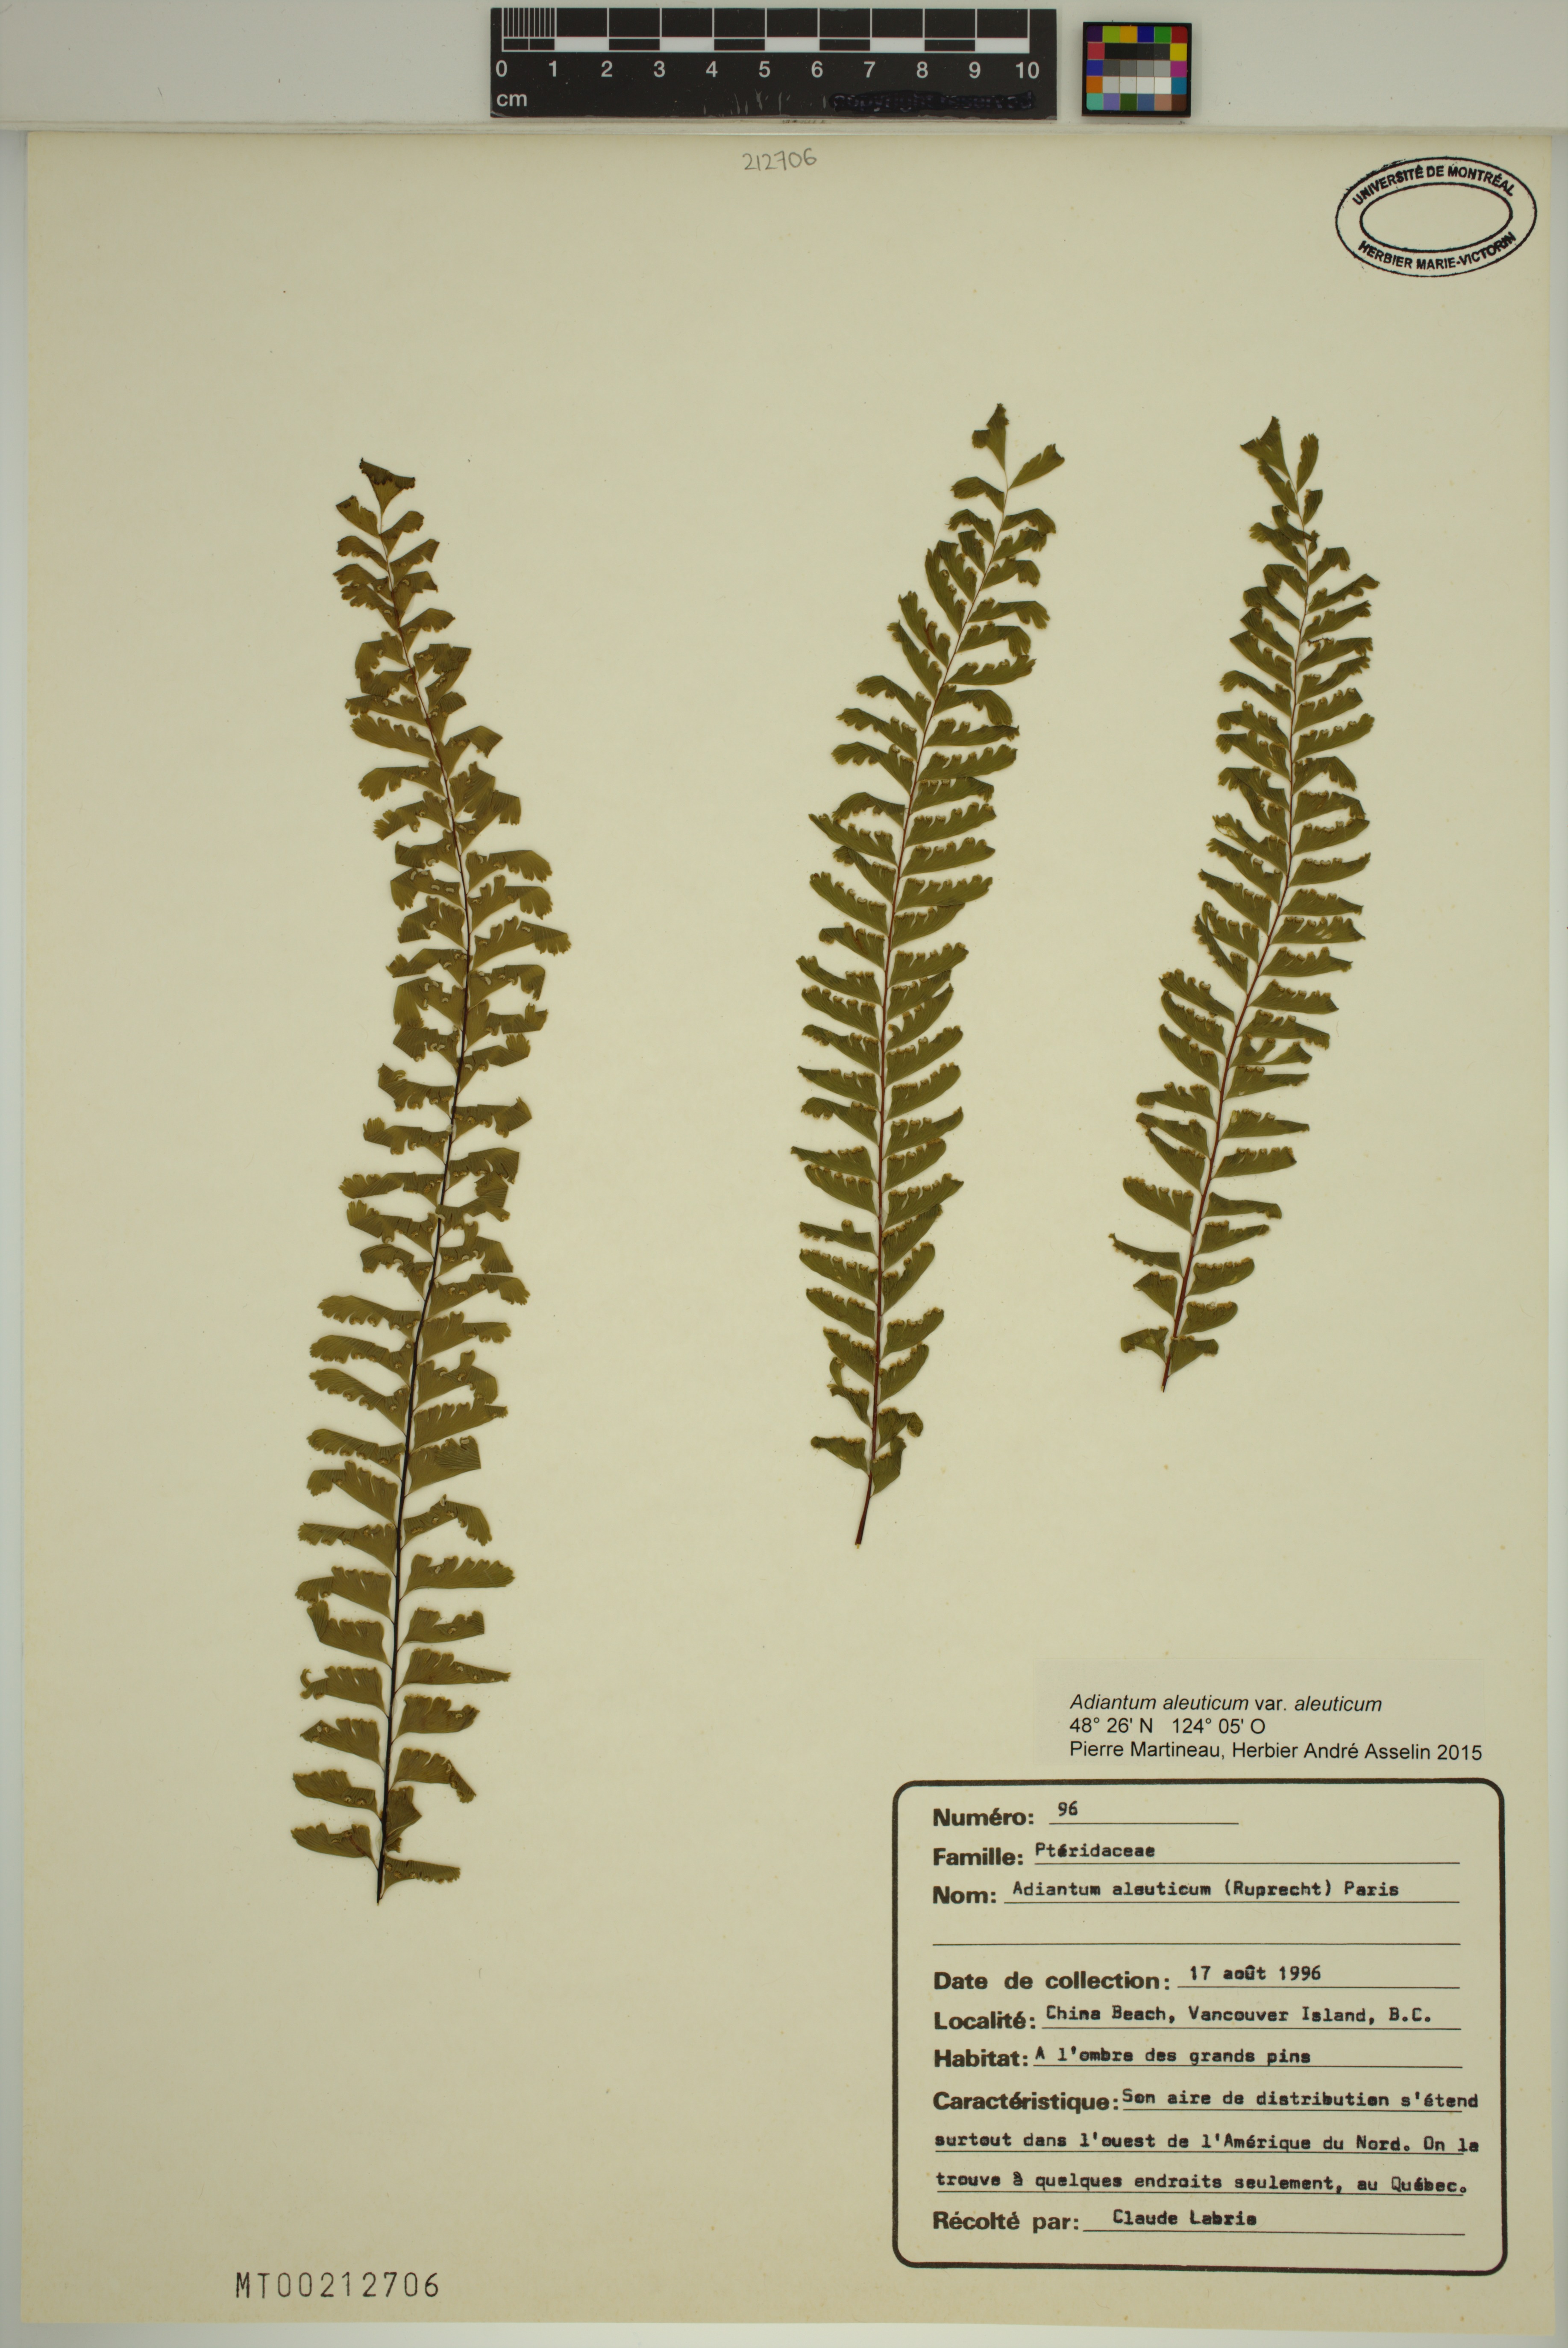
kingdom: Plantae
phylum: Tracheophyta
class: Polypodiopsida
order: Polypodiales
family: Pteridaceae
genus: Adiantum
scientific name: Adiantum aleuticum
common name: Aleutian maidenhair fern
